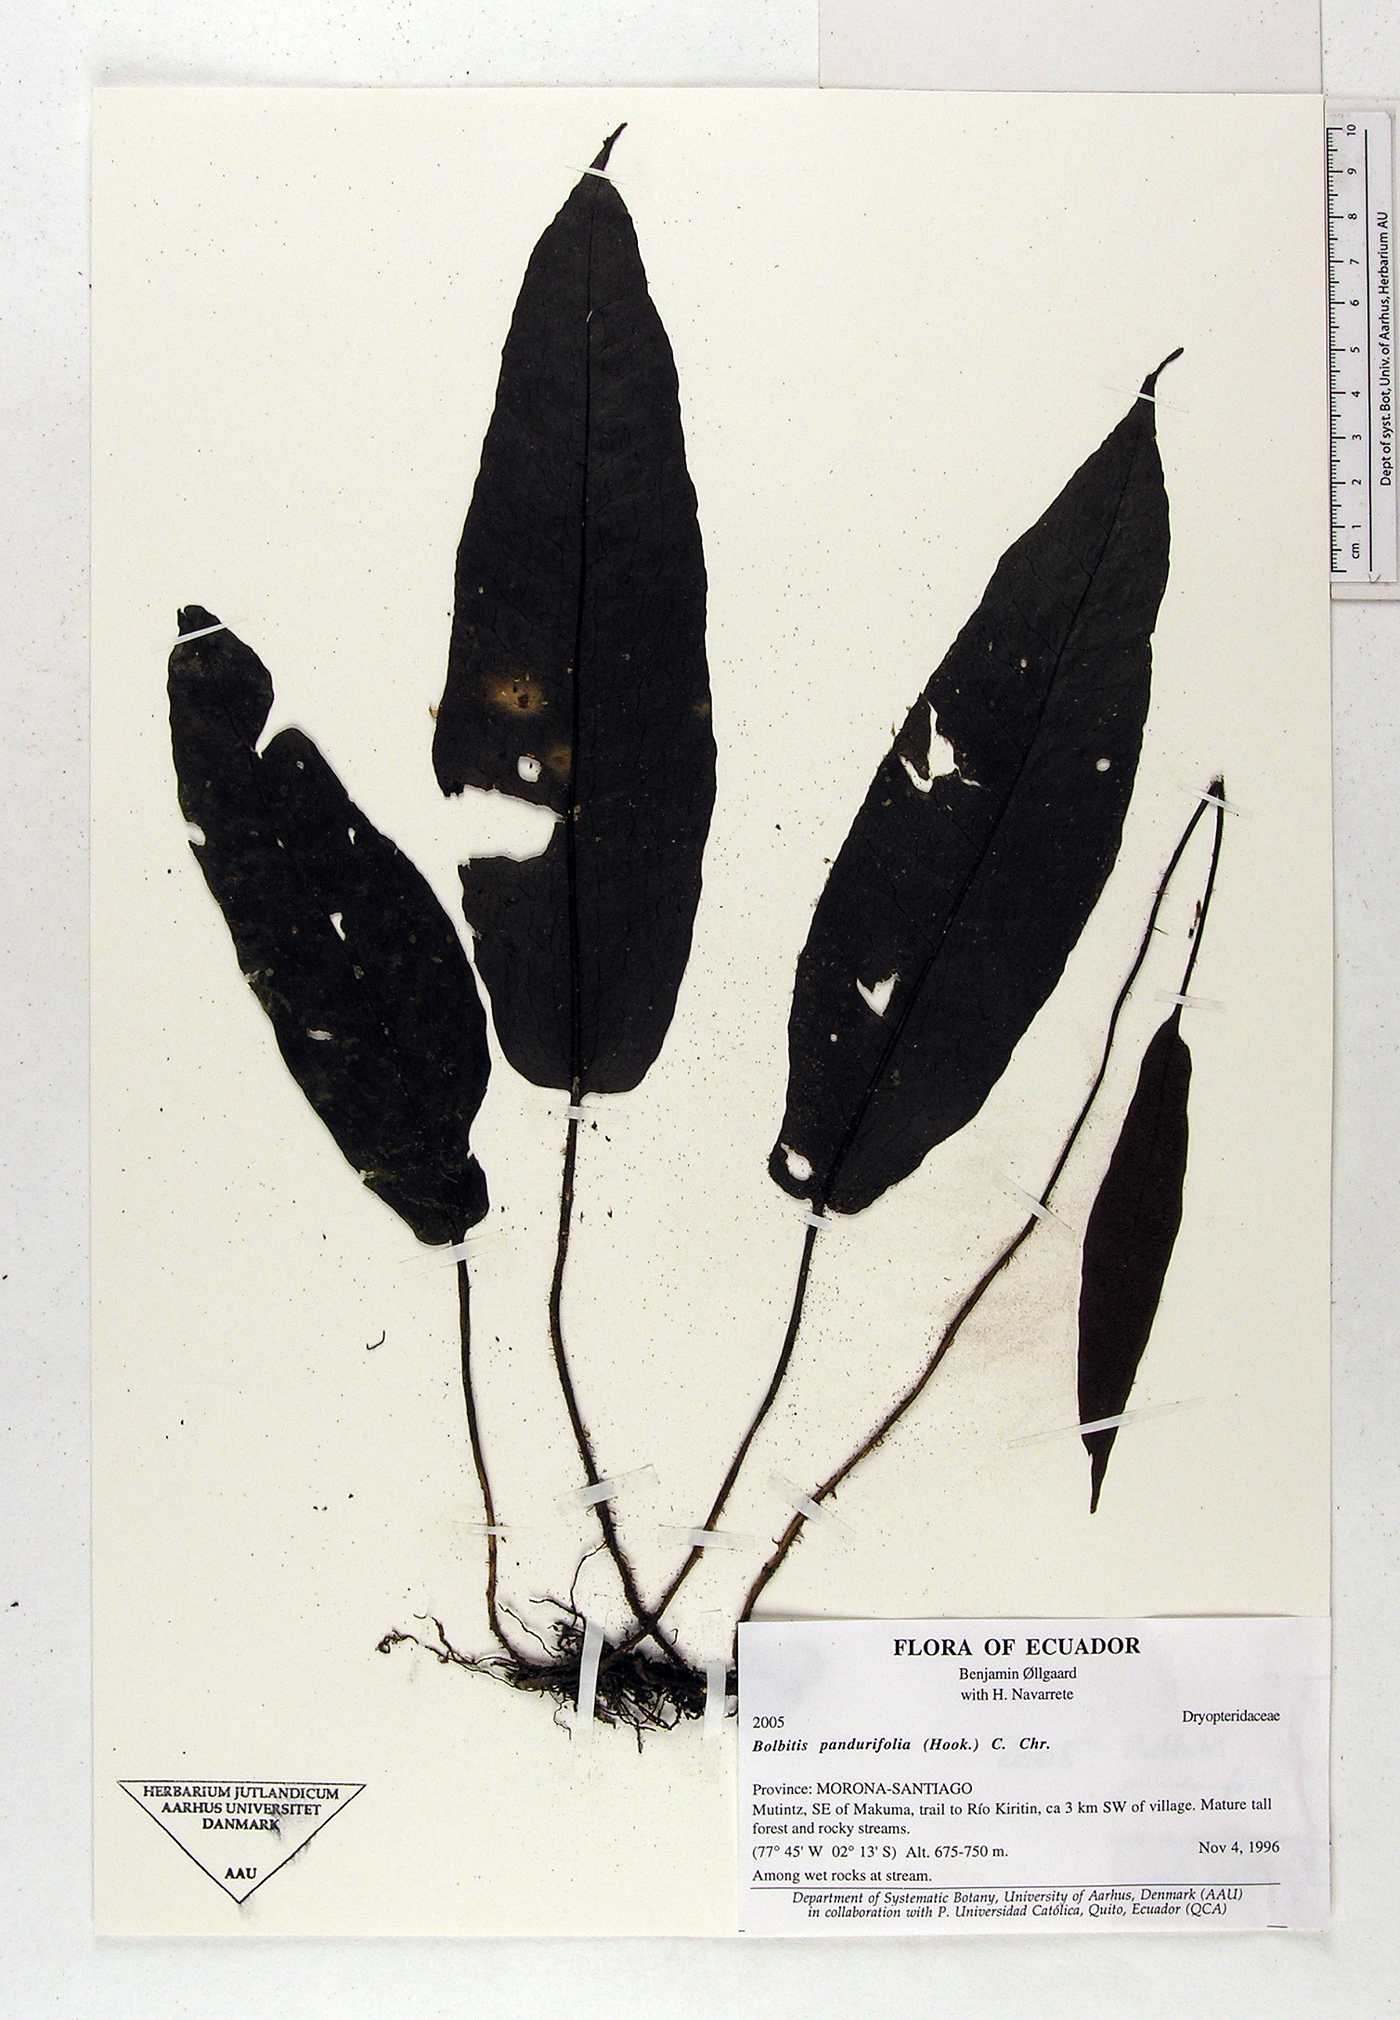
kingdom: Plantae
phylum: Tracheophyta
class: Polypodiopsida
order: Polypodiales
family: Dryopteridaceae
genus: Bolbitis
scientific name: Bolbitis pandurifolia
